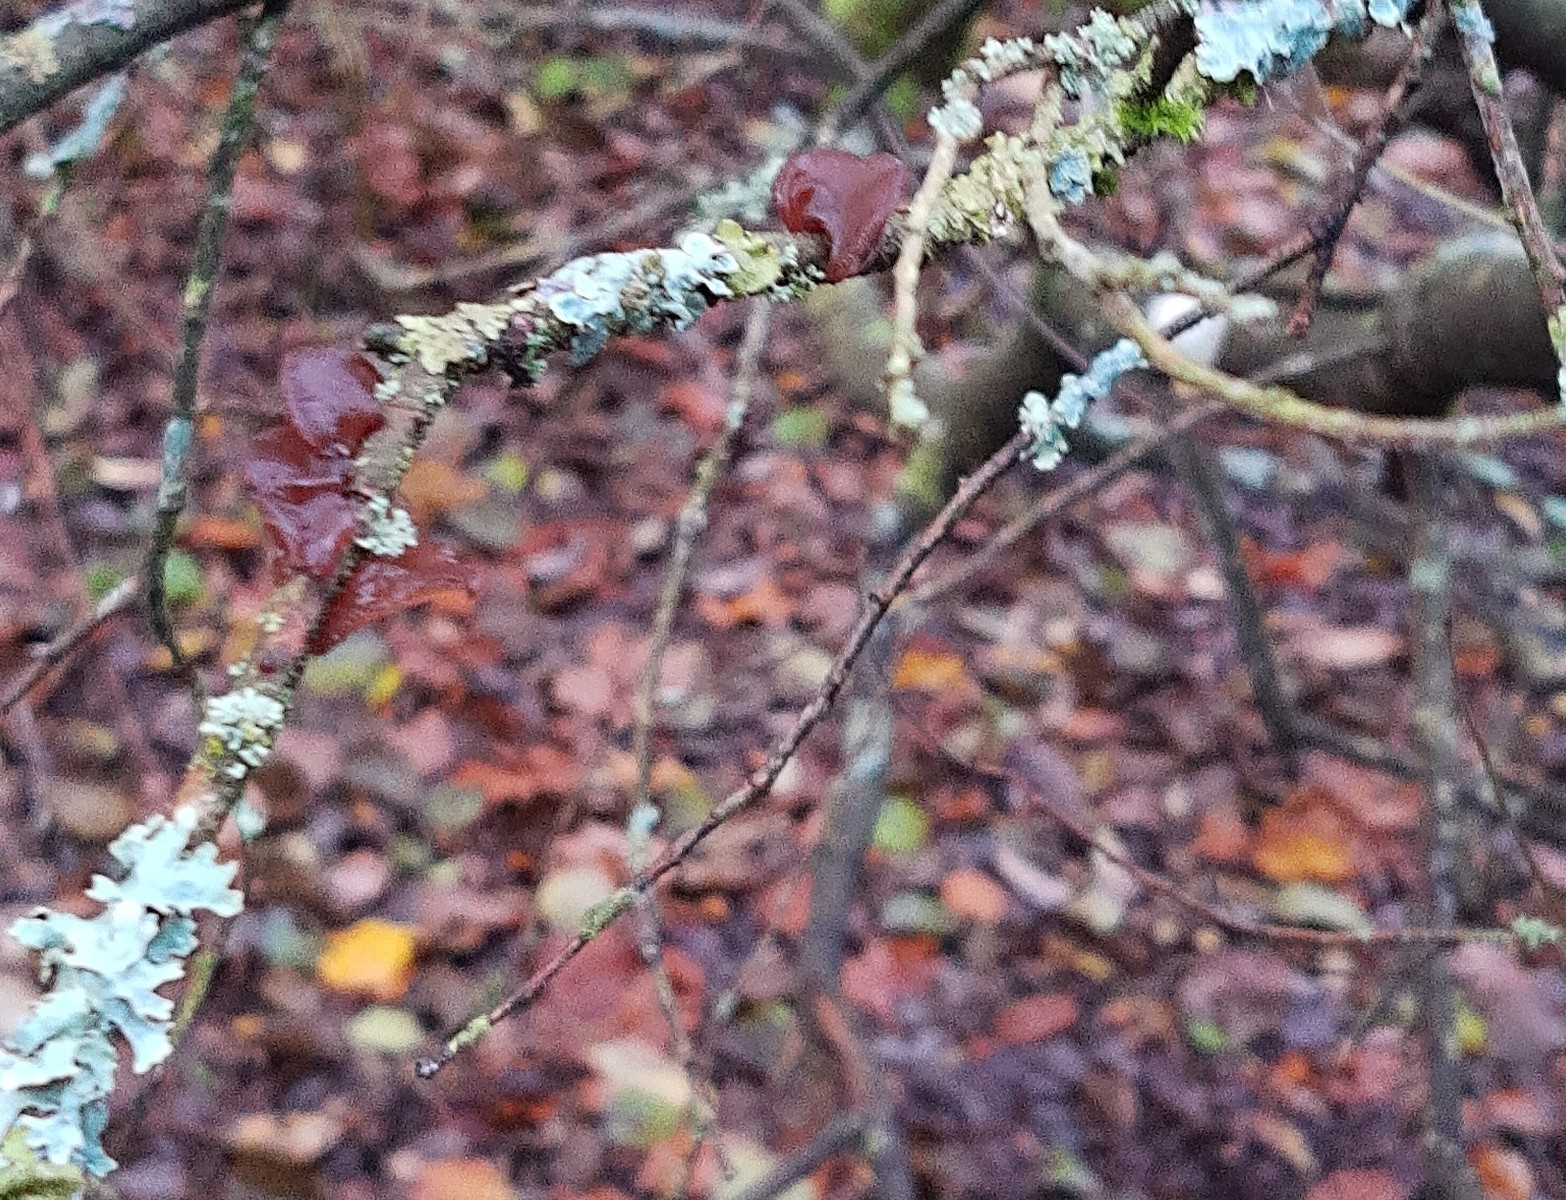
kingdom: Fungi
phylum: Basidiomycota
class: Agaricomycetes
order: Auriculariales
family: Auriculariaceae
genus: Exidia
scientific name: Exidia recisa
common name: pile-bævretop
